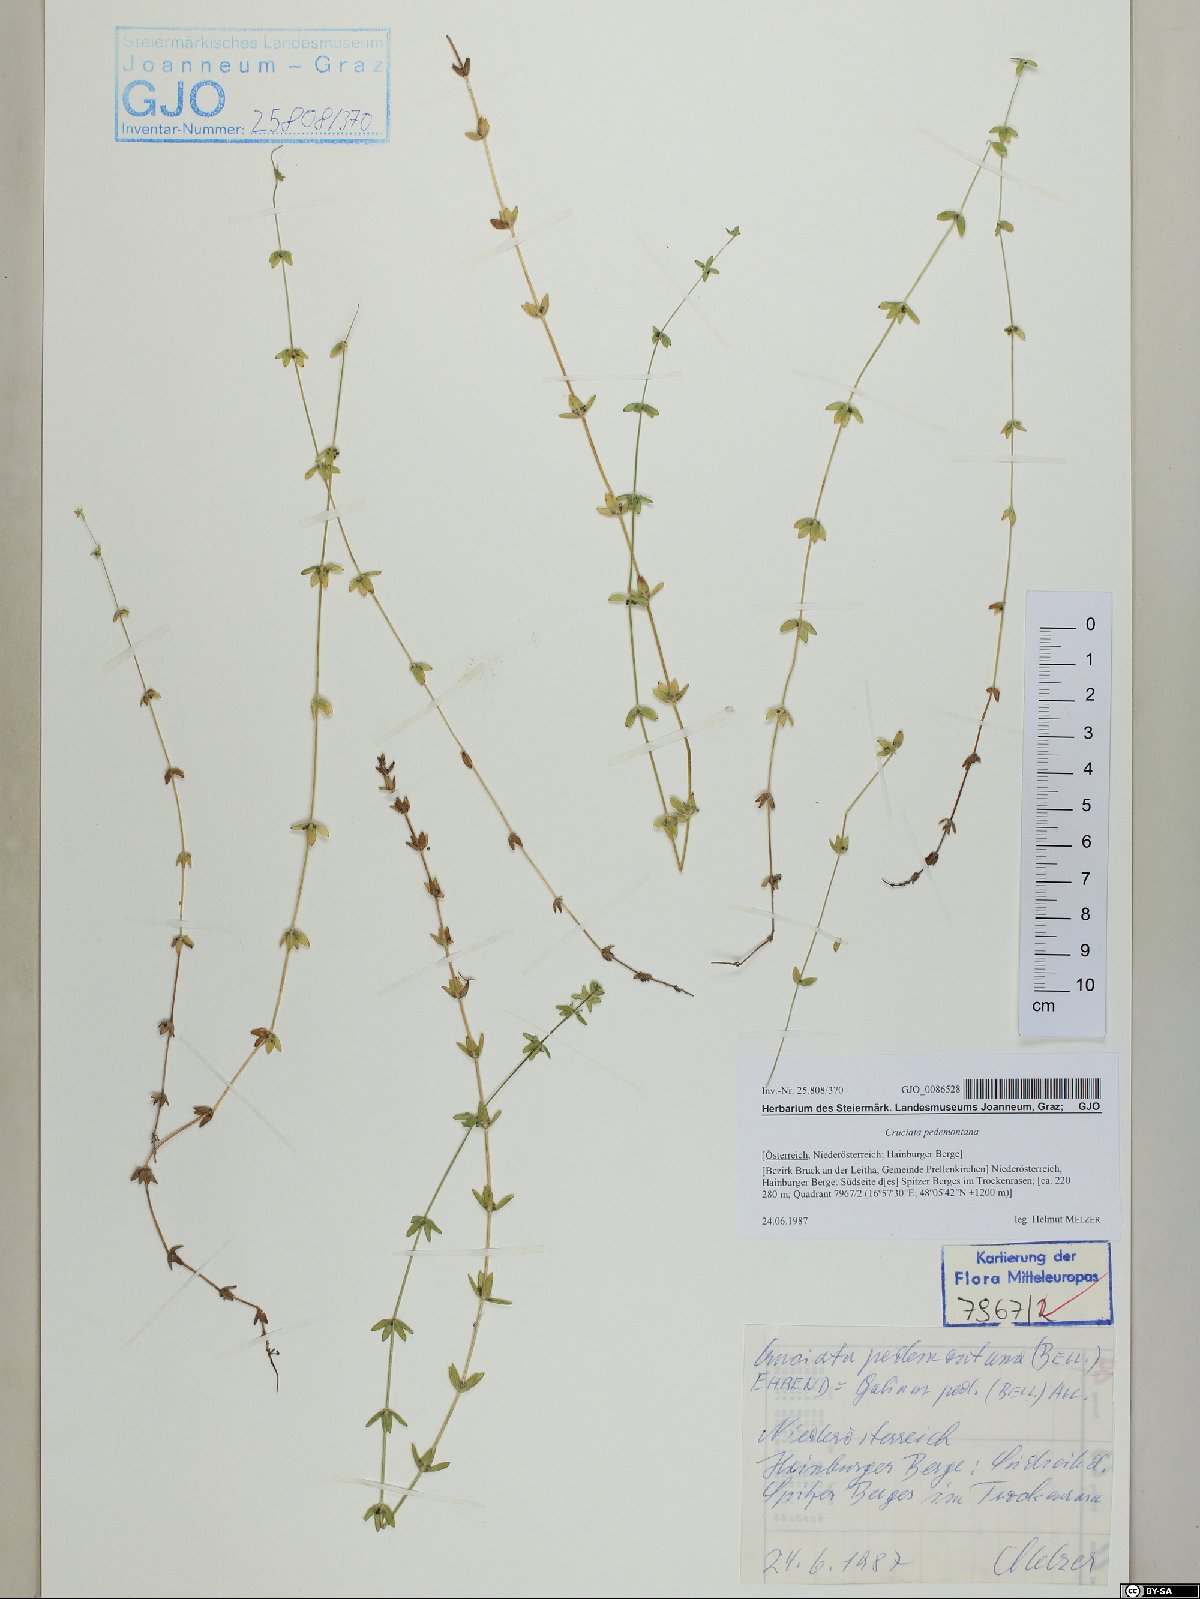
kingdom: Plantae
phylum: Tracheophyta
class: Magnoliopsida
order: Gentianales
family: Rubiaceae
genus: Cruciata
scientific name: Cruciata pedemontana
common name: Piedmont bedstraw
